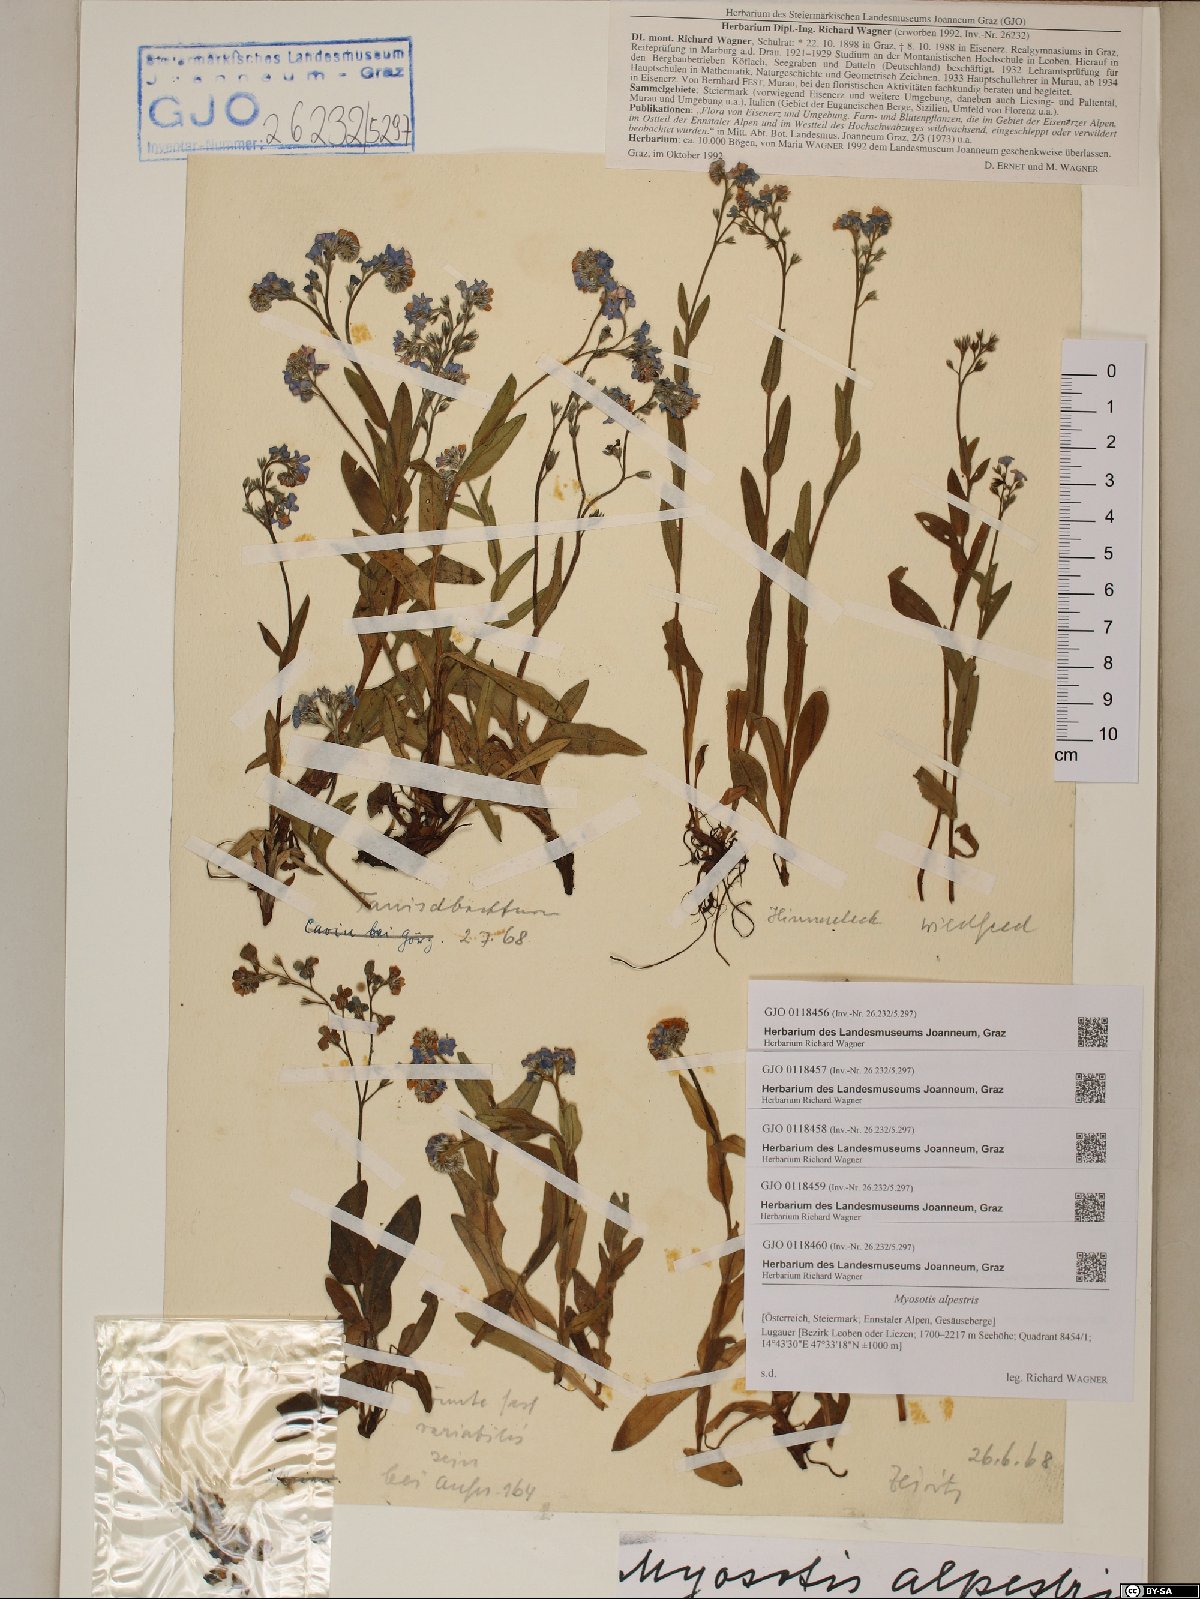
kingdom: Plantae
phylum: Tracheophyta
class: Magnoliopsida
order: Boraginales
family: Boraginaceae
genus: Myosotis
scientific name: Myosotis alpestris
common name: Alpine forget-me-not
